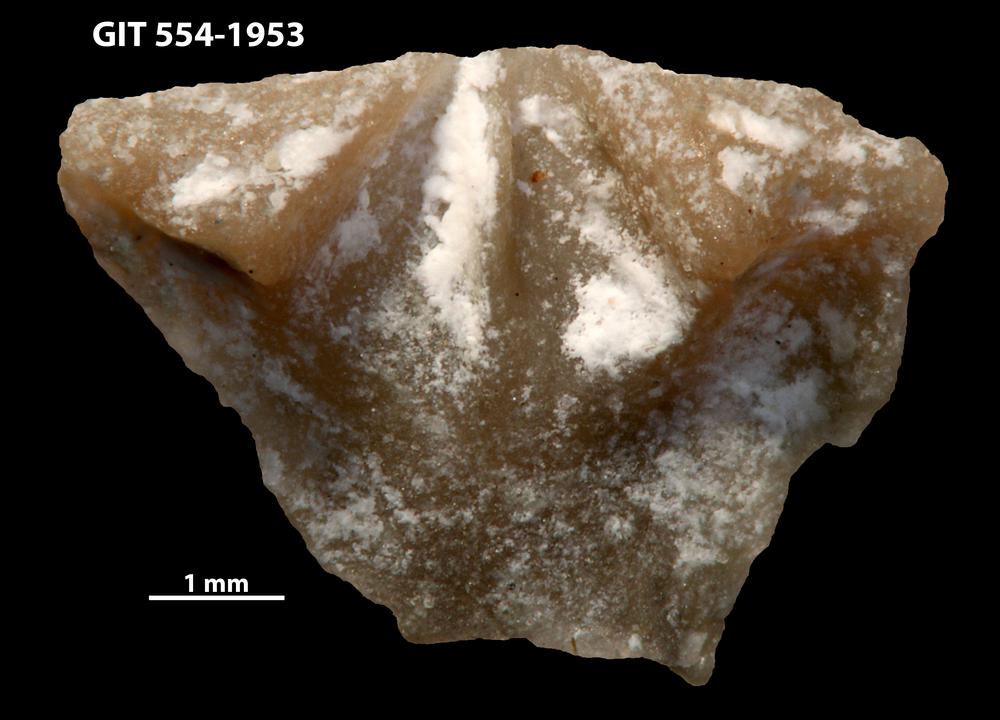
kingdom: Animalia
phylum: Brachiopoda
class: Rhynchonellata
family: Dolerorthidae
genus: Hesperorthis
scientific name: Hesperorthis hillistensis
